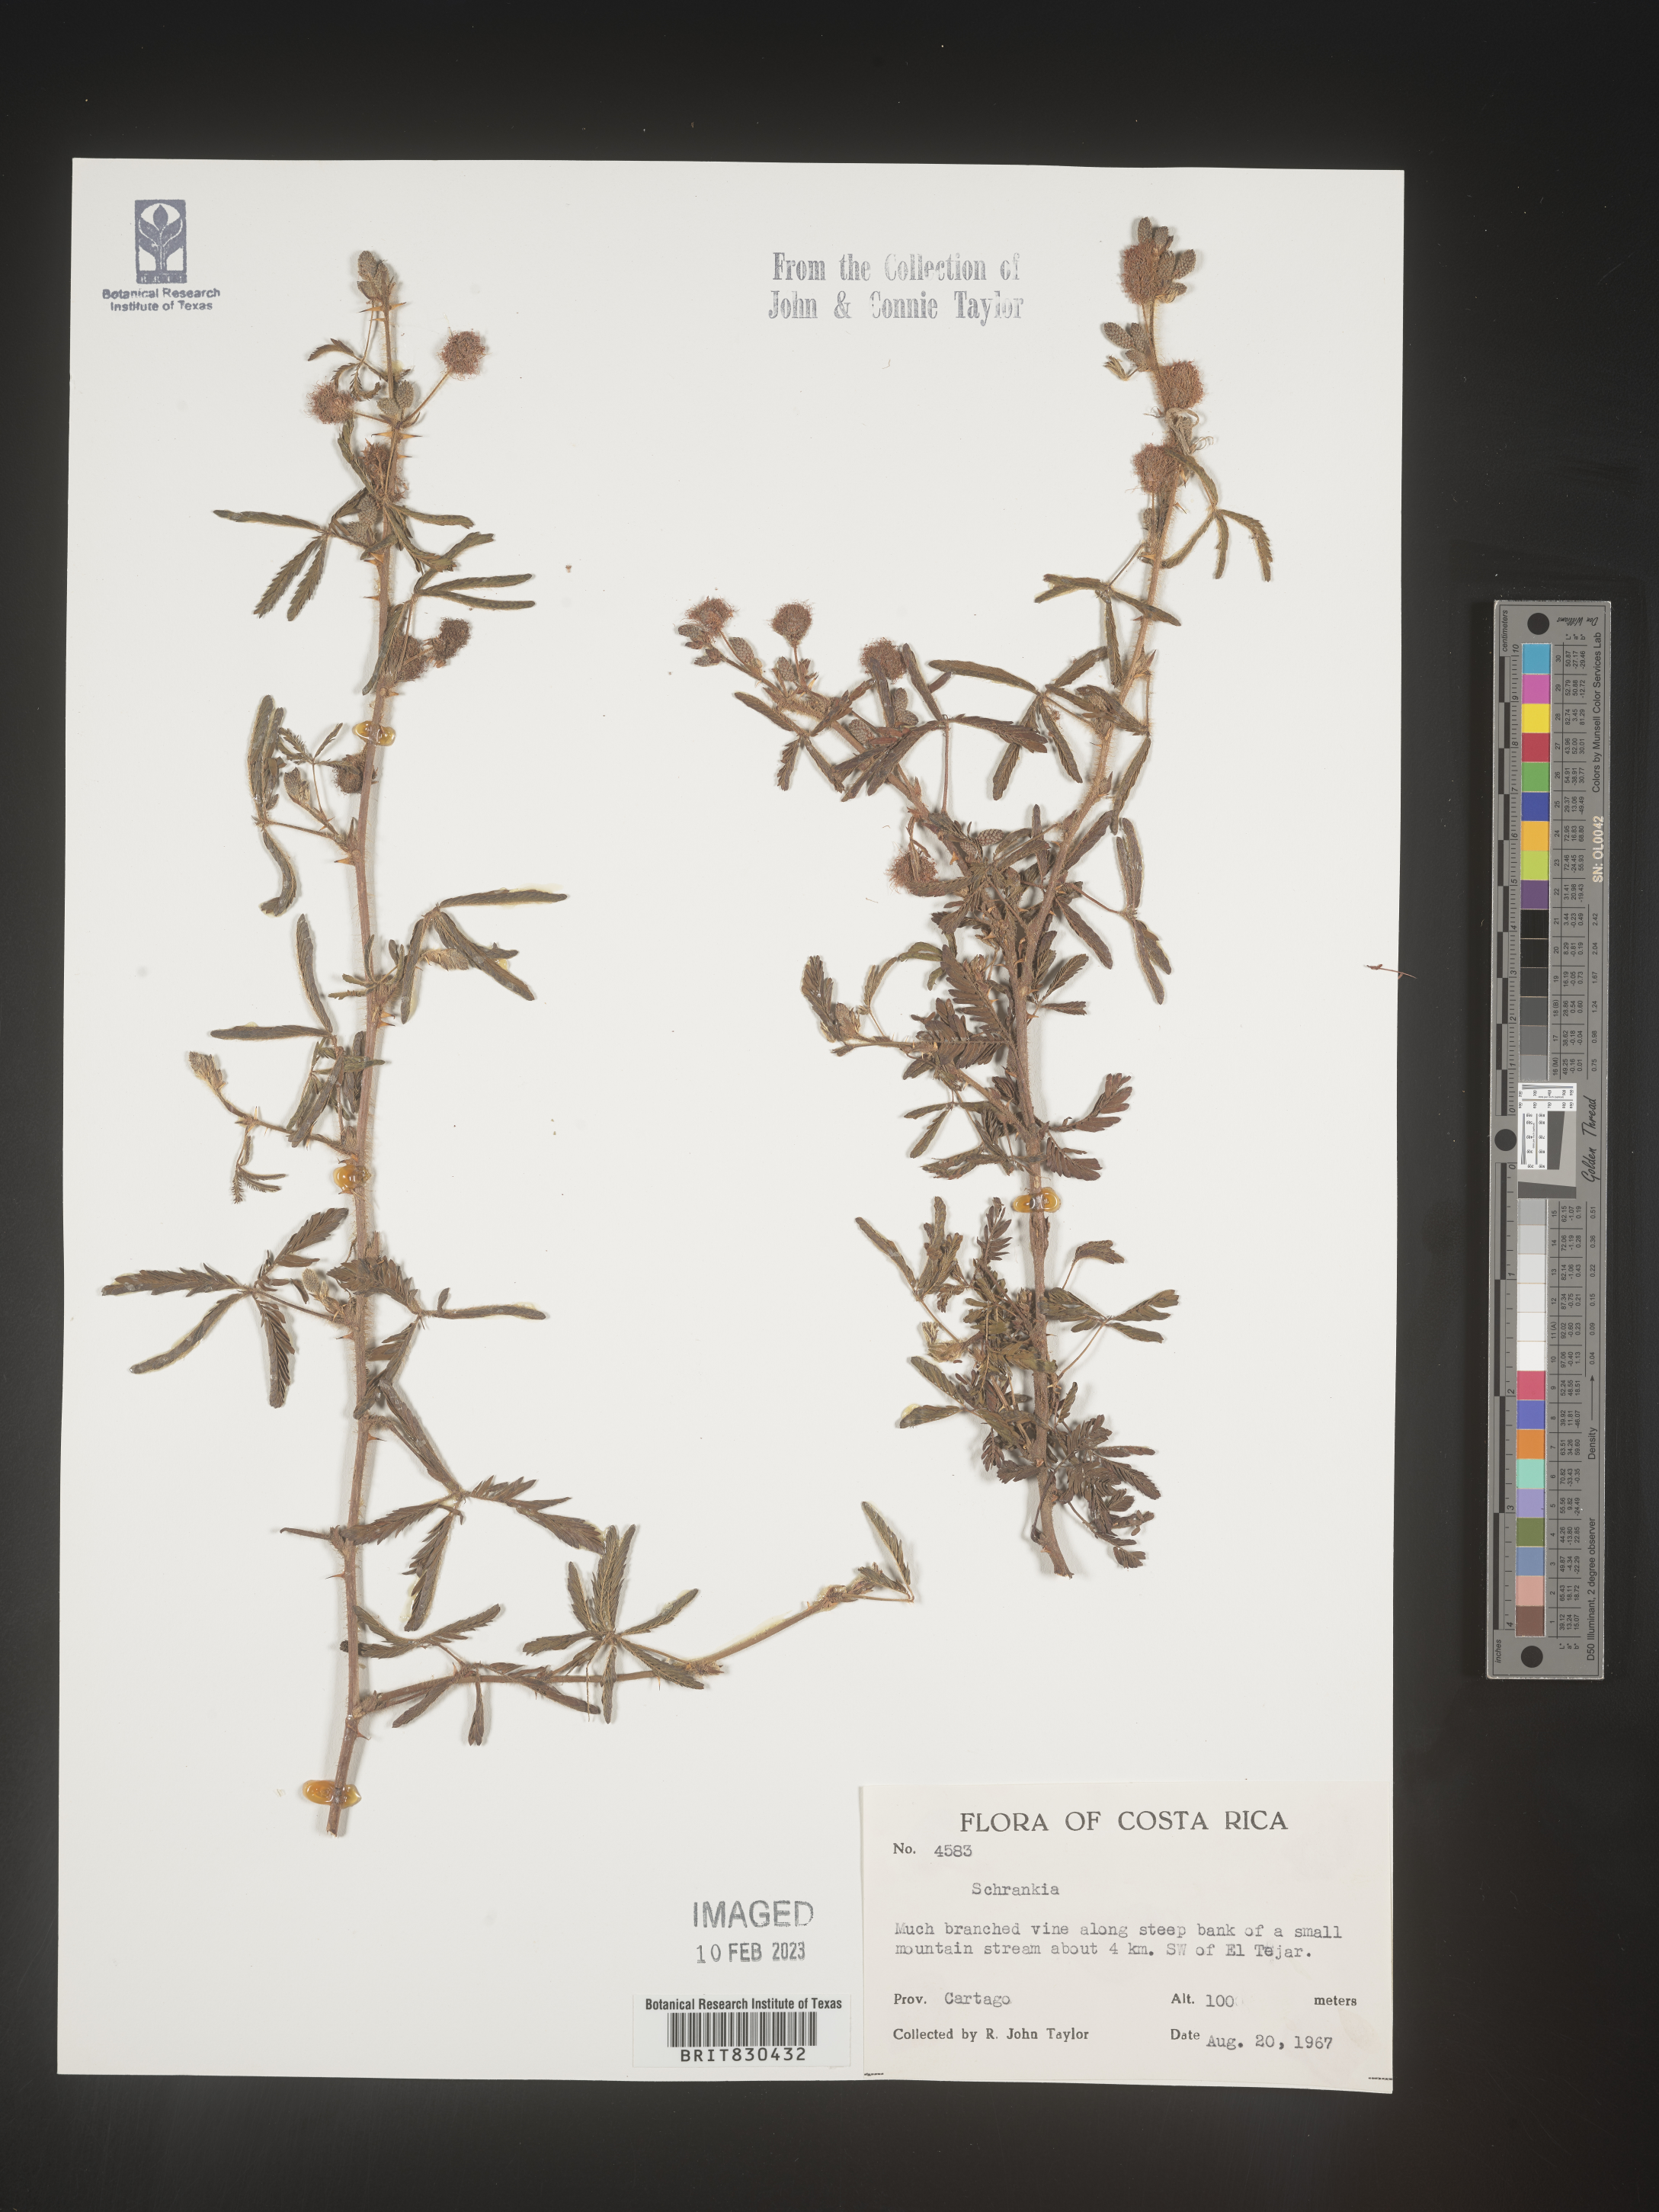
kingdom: Plantae
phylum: Tracheophyta
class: Magnoliopsida
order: Fabales
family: Fabaceae
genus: Mimosa
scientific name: Mimosa
